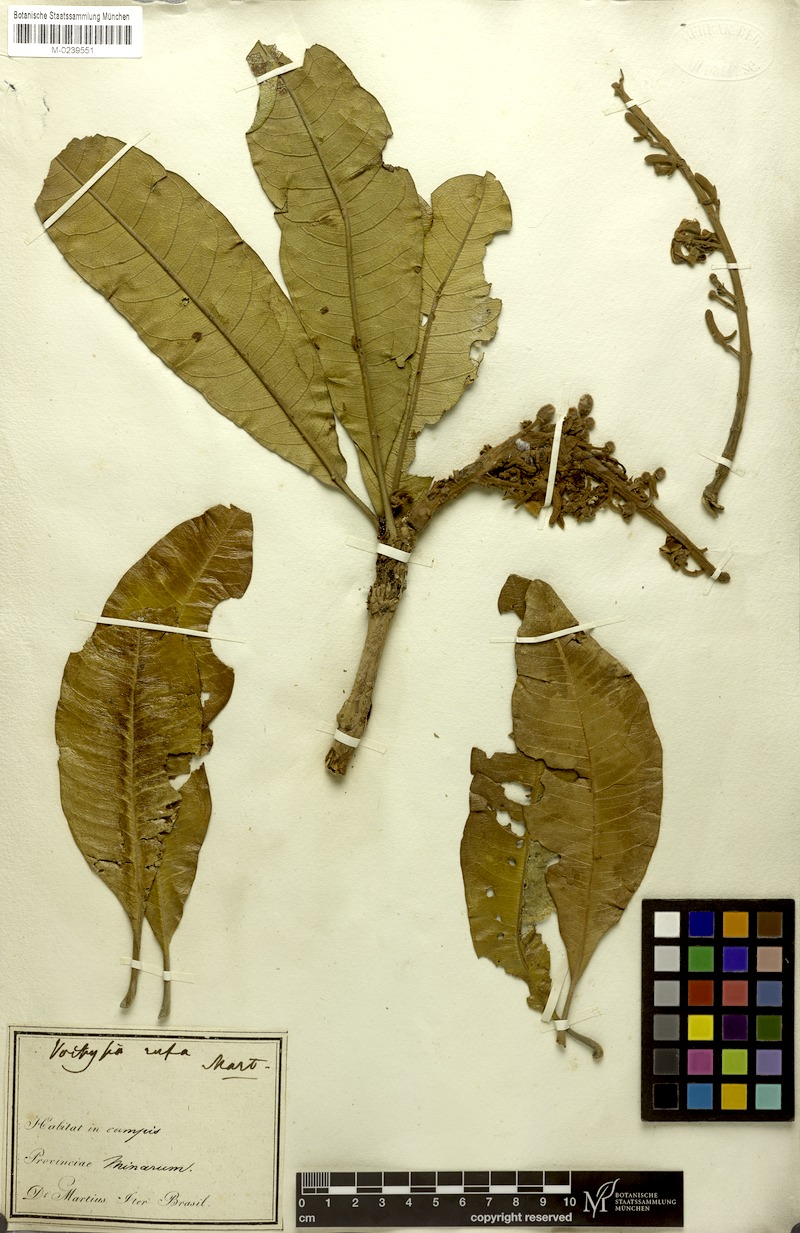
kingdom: Plantae
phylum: Tracheophyta
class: Magnoliopsida
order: Myrtales
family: Vochysiaceae
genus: Vochysia
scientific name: Vochysia rufa
